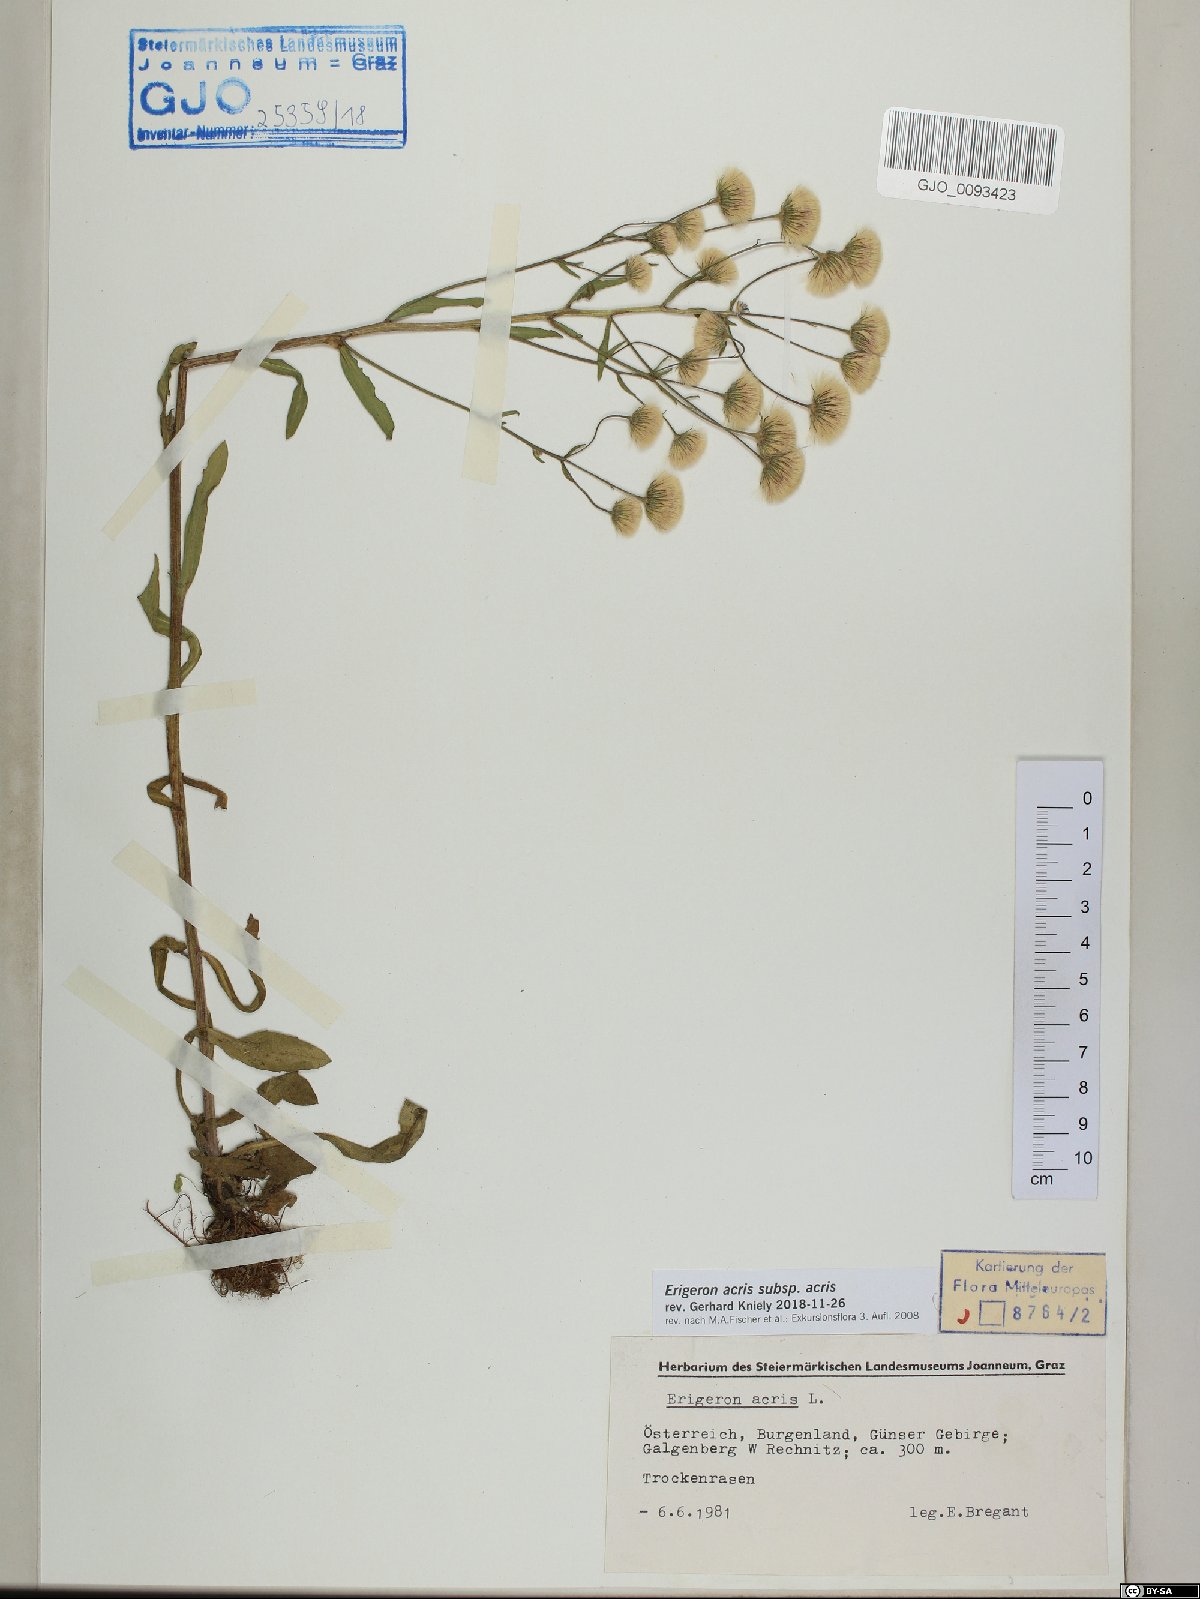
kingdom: Plantae
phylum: Tracheophyta
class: Magnoliopsida
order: Asterales
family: Asteraceae
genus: Erigeron
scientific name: Erigeron acris
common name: Blue fleabane
